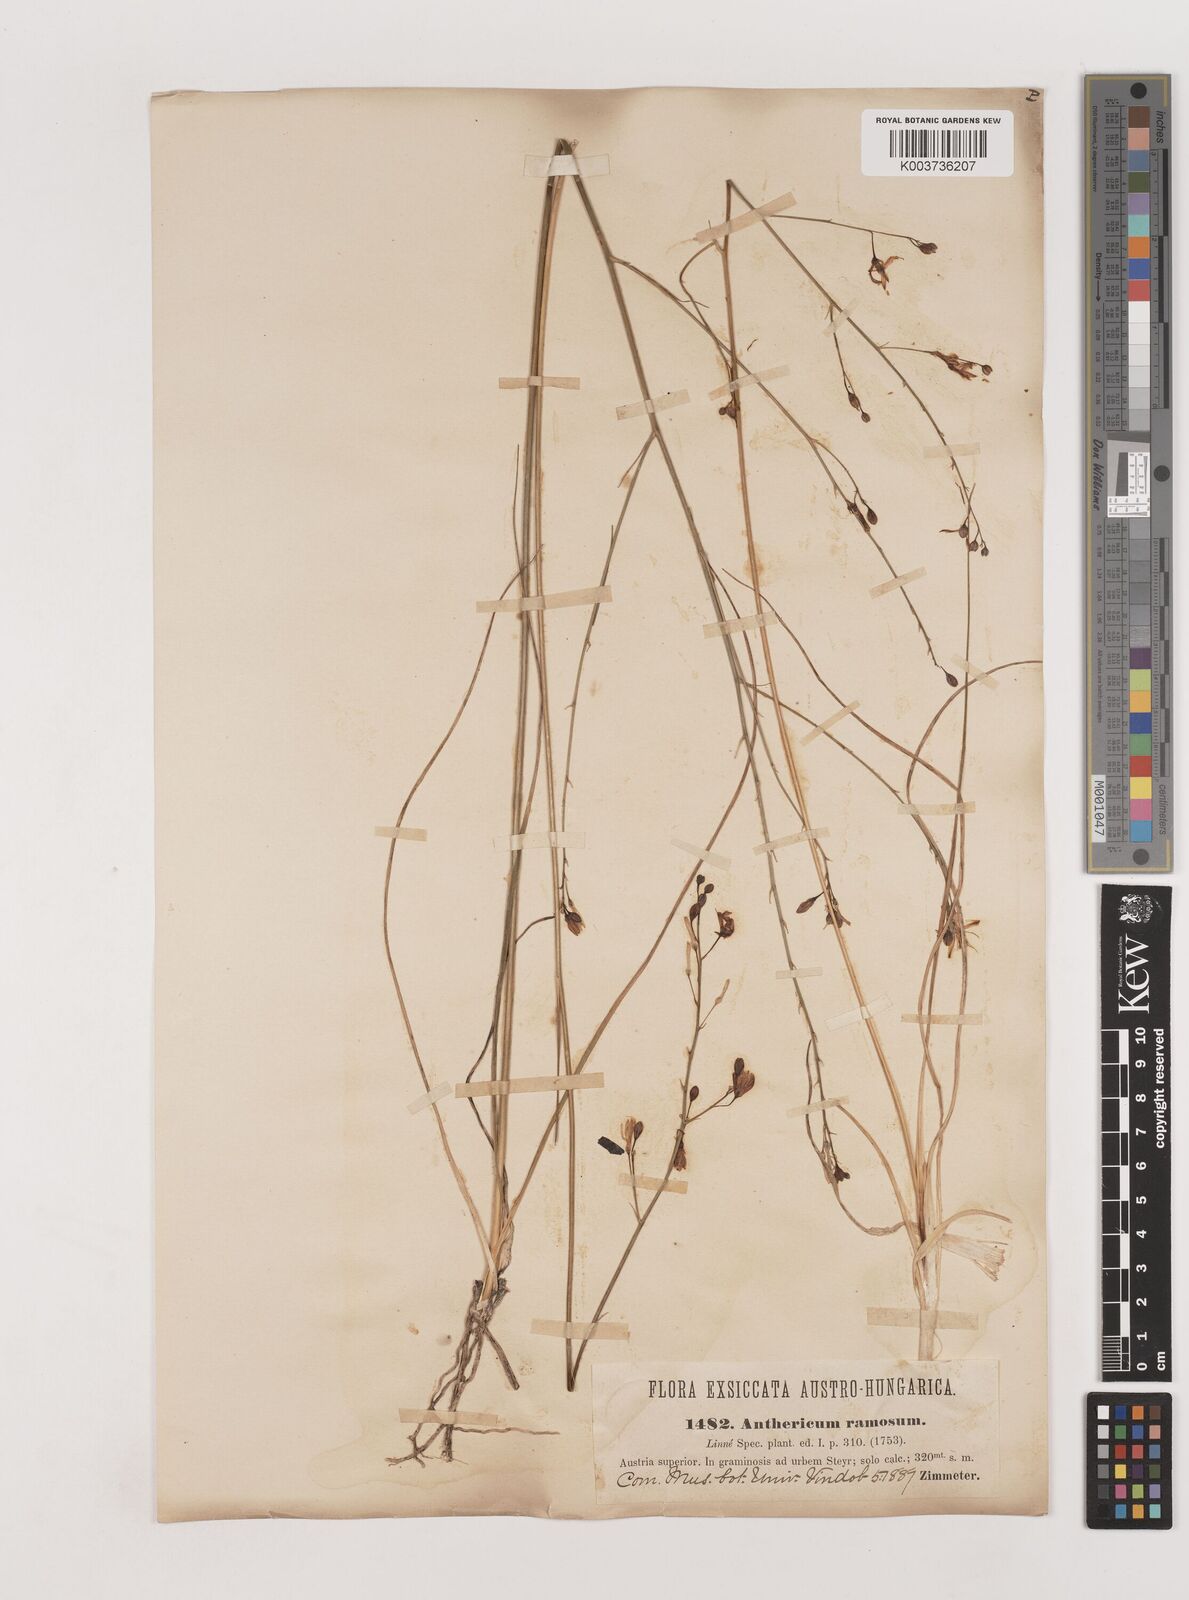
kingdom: Plantae
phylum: Tracheophyta
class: Liliopsida
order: Asparagales
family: Asparagaceae
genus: Anthericum
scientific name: Anthericum
